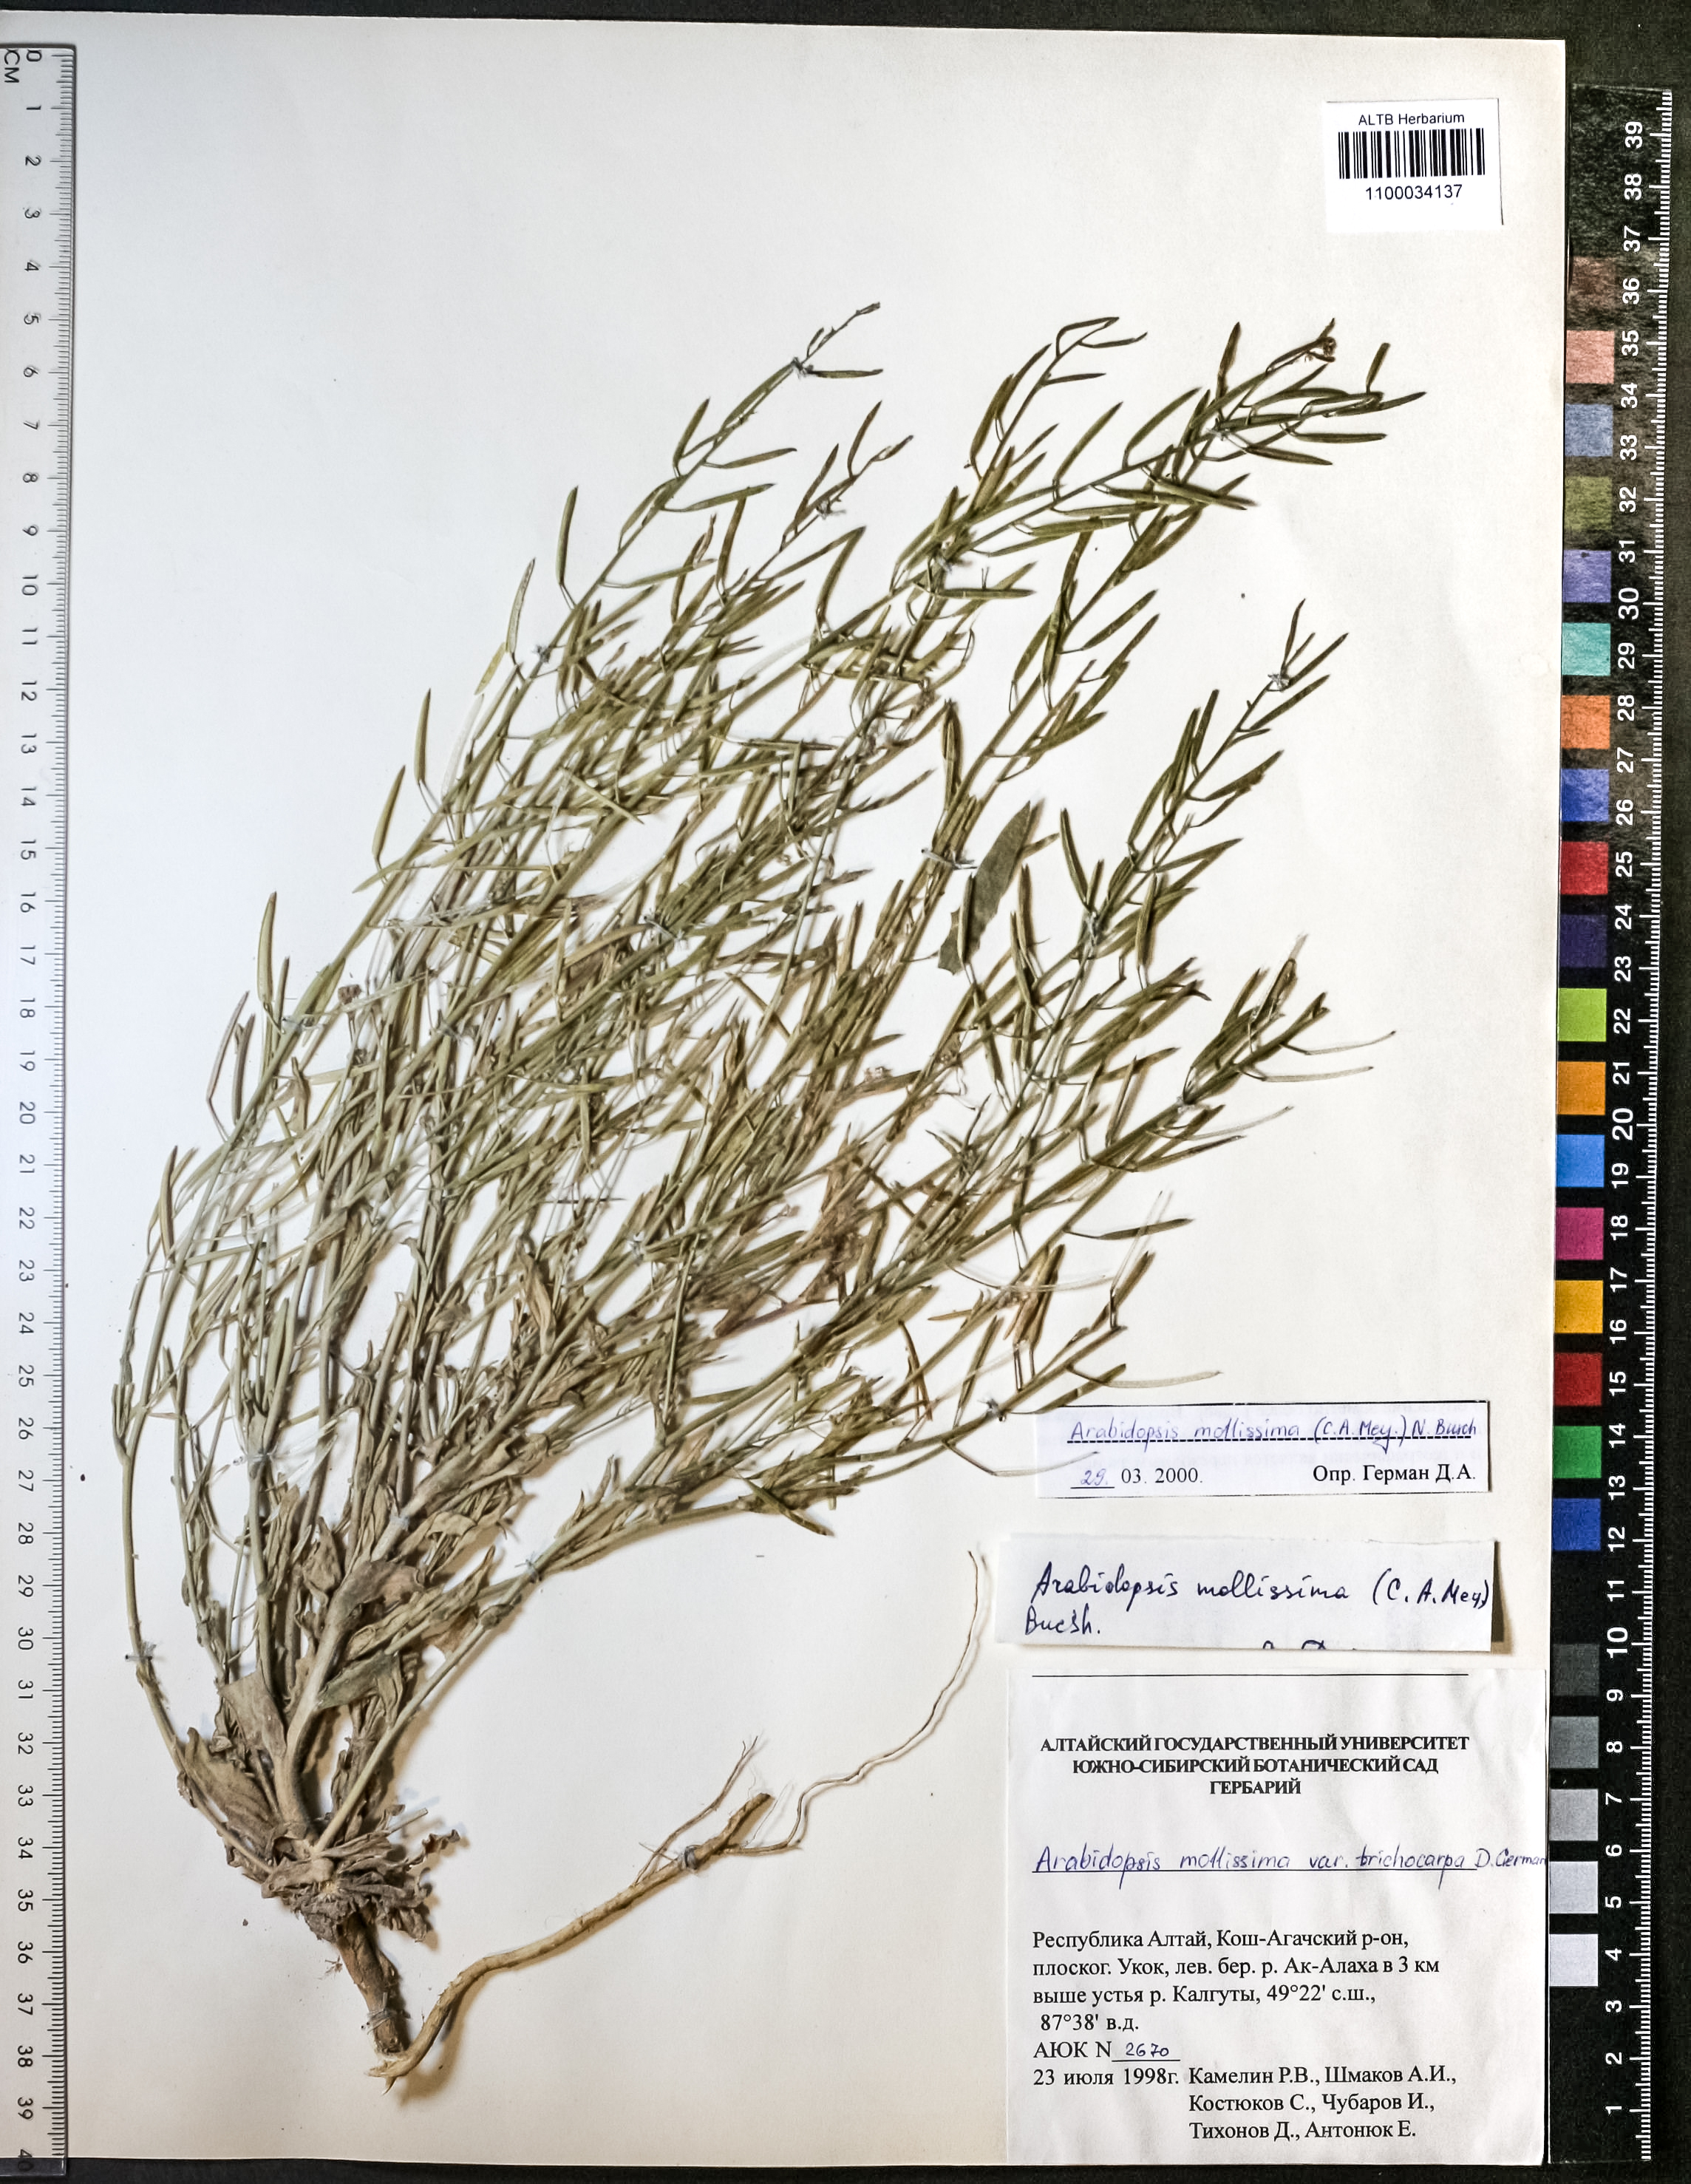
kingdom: Plantae
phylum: Tracheophyta
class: Magnoliopsida
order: Brassicales
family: Brassicaceae
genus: Crucihimalaya
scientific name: Crucihimalaya mollissima
